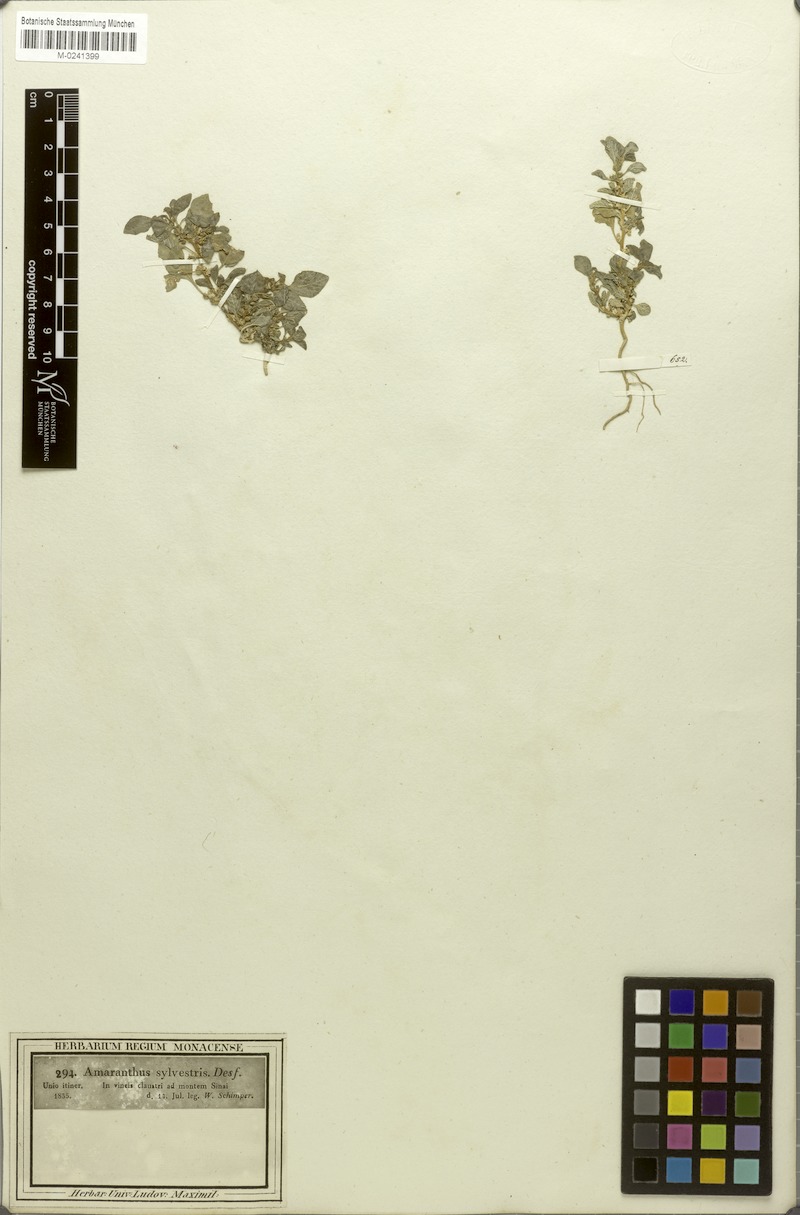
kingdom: Plantae
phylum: Tracheophyta
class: Magnoliopsida
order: Caryophyllales
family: Amaranthaceae
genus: Amaranthus
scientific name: Amaranthus graecizans
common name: Mediterranean amaranth
